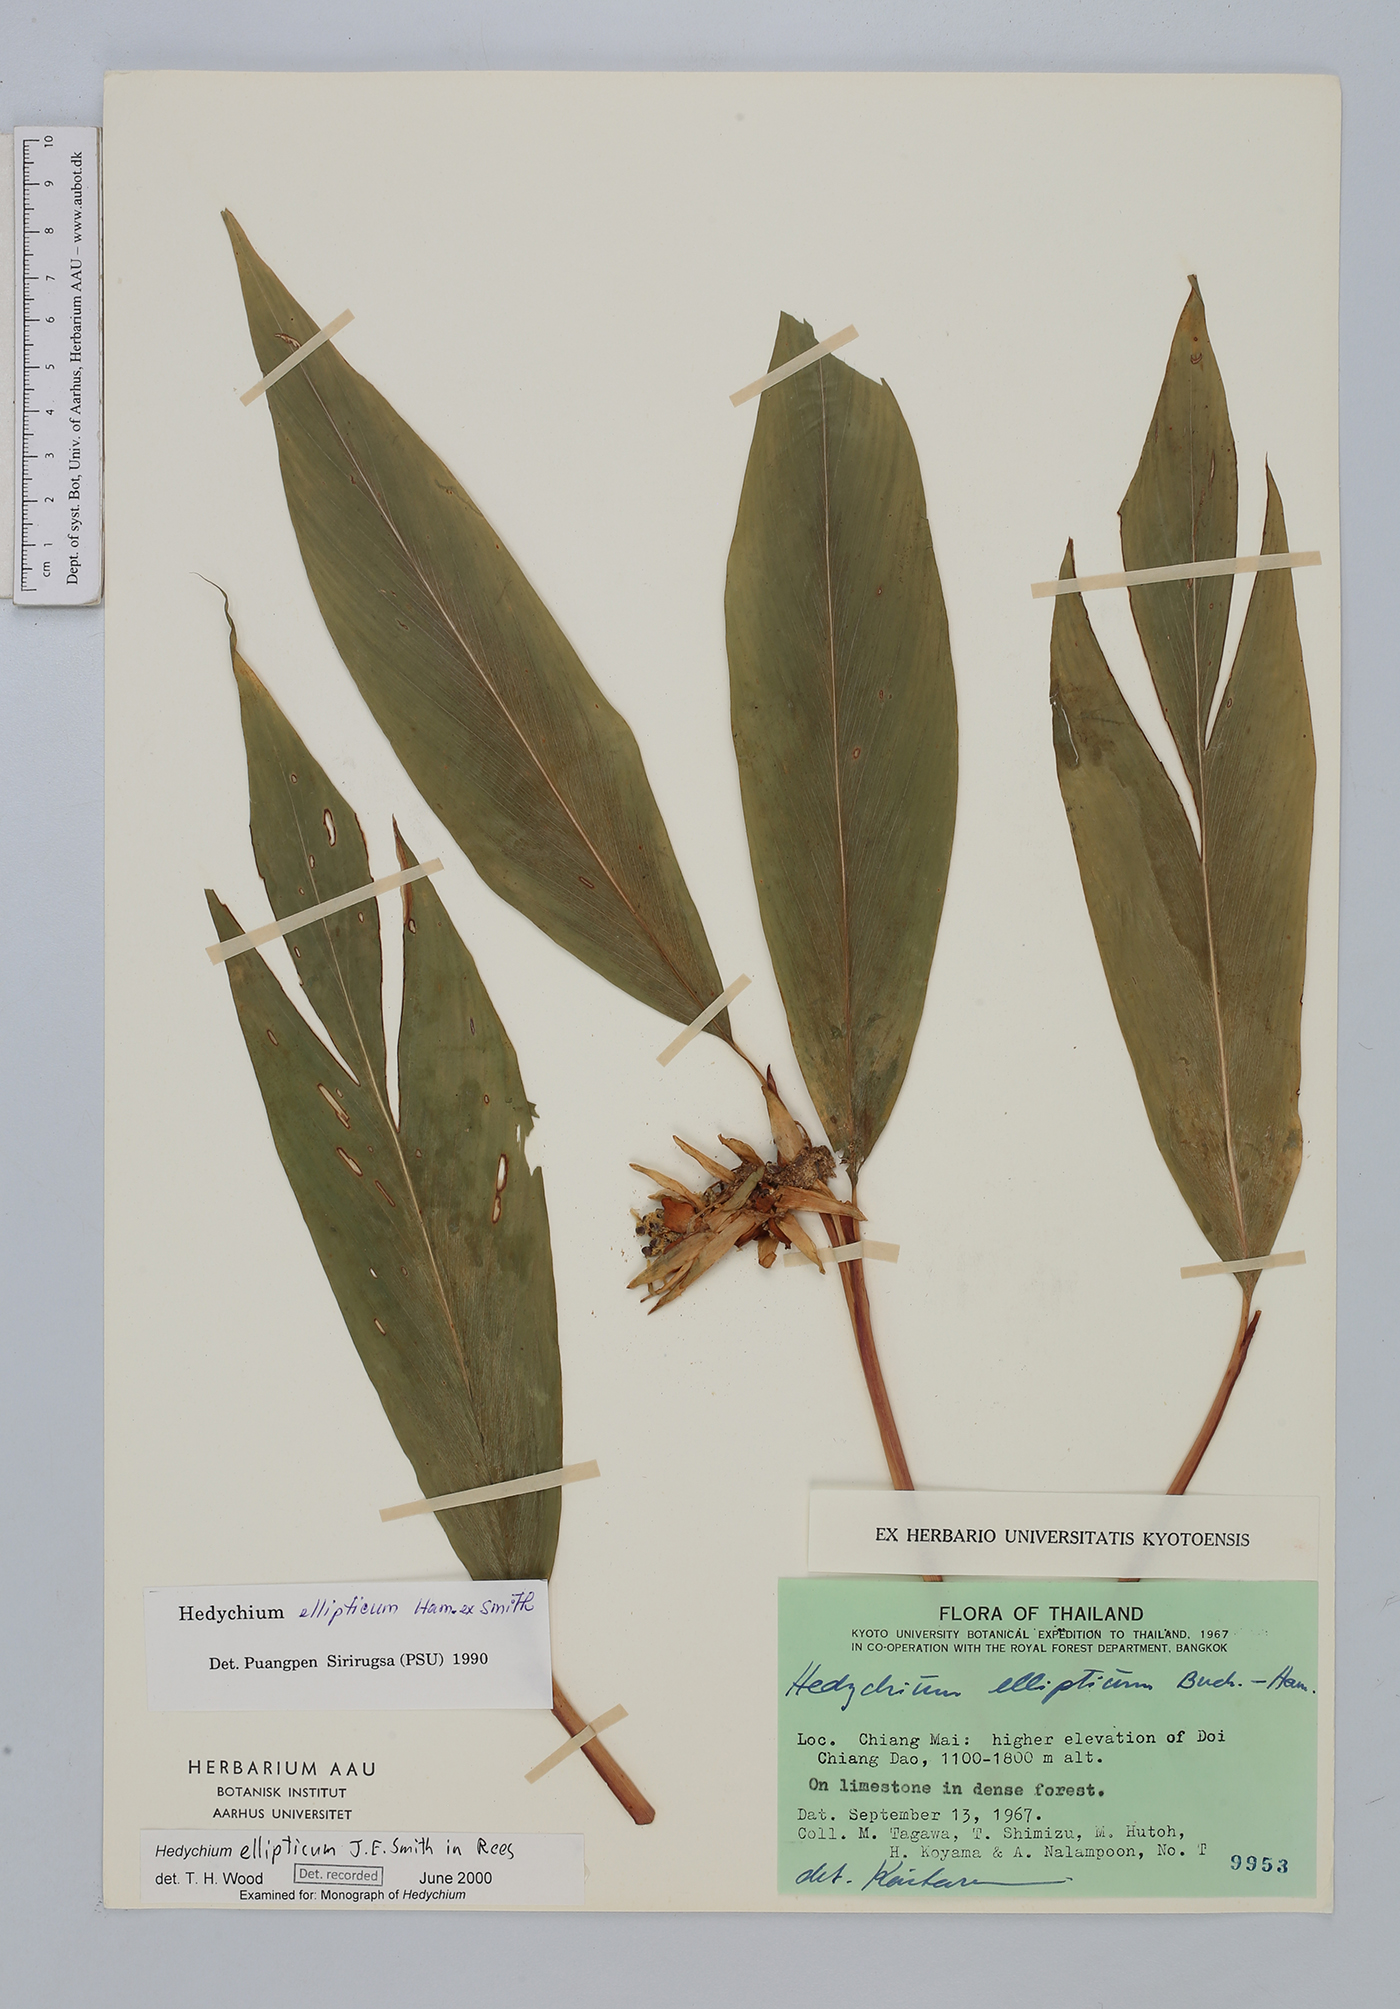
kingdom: Plantae
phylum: Tracheophyta
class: Liliopsida
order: Zingiberales
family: Zingiberaceae
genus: Hedychium
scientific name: Hedychium ellipticum
